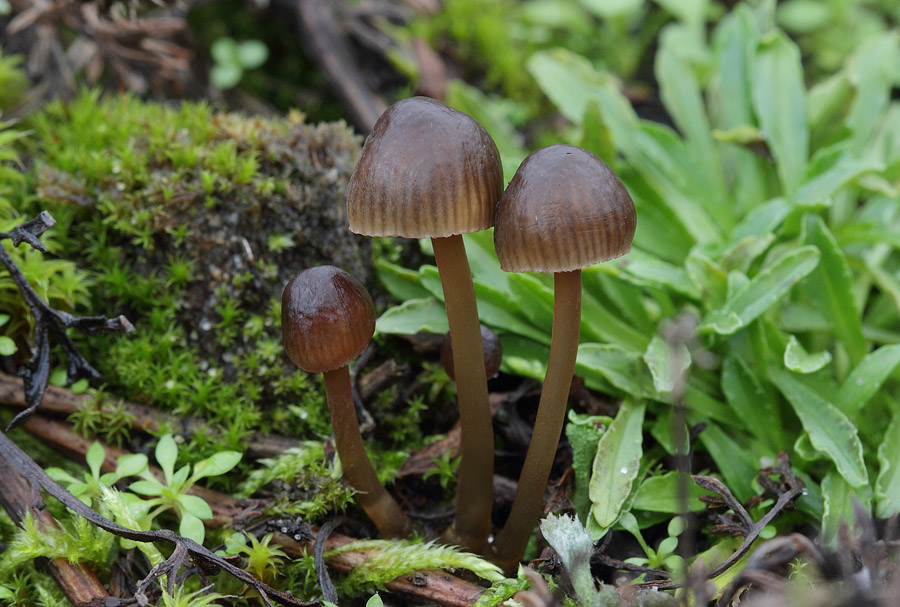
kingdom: Fungi
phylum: Basidiomycota
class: Agaricomycetes
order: Agaricales
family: Mycenaceae
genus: Mycena
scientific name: Mycena olivaceomarginata
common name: brunægget huesvamp
